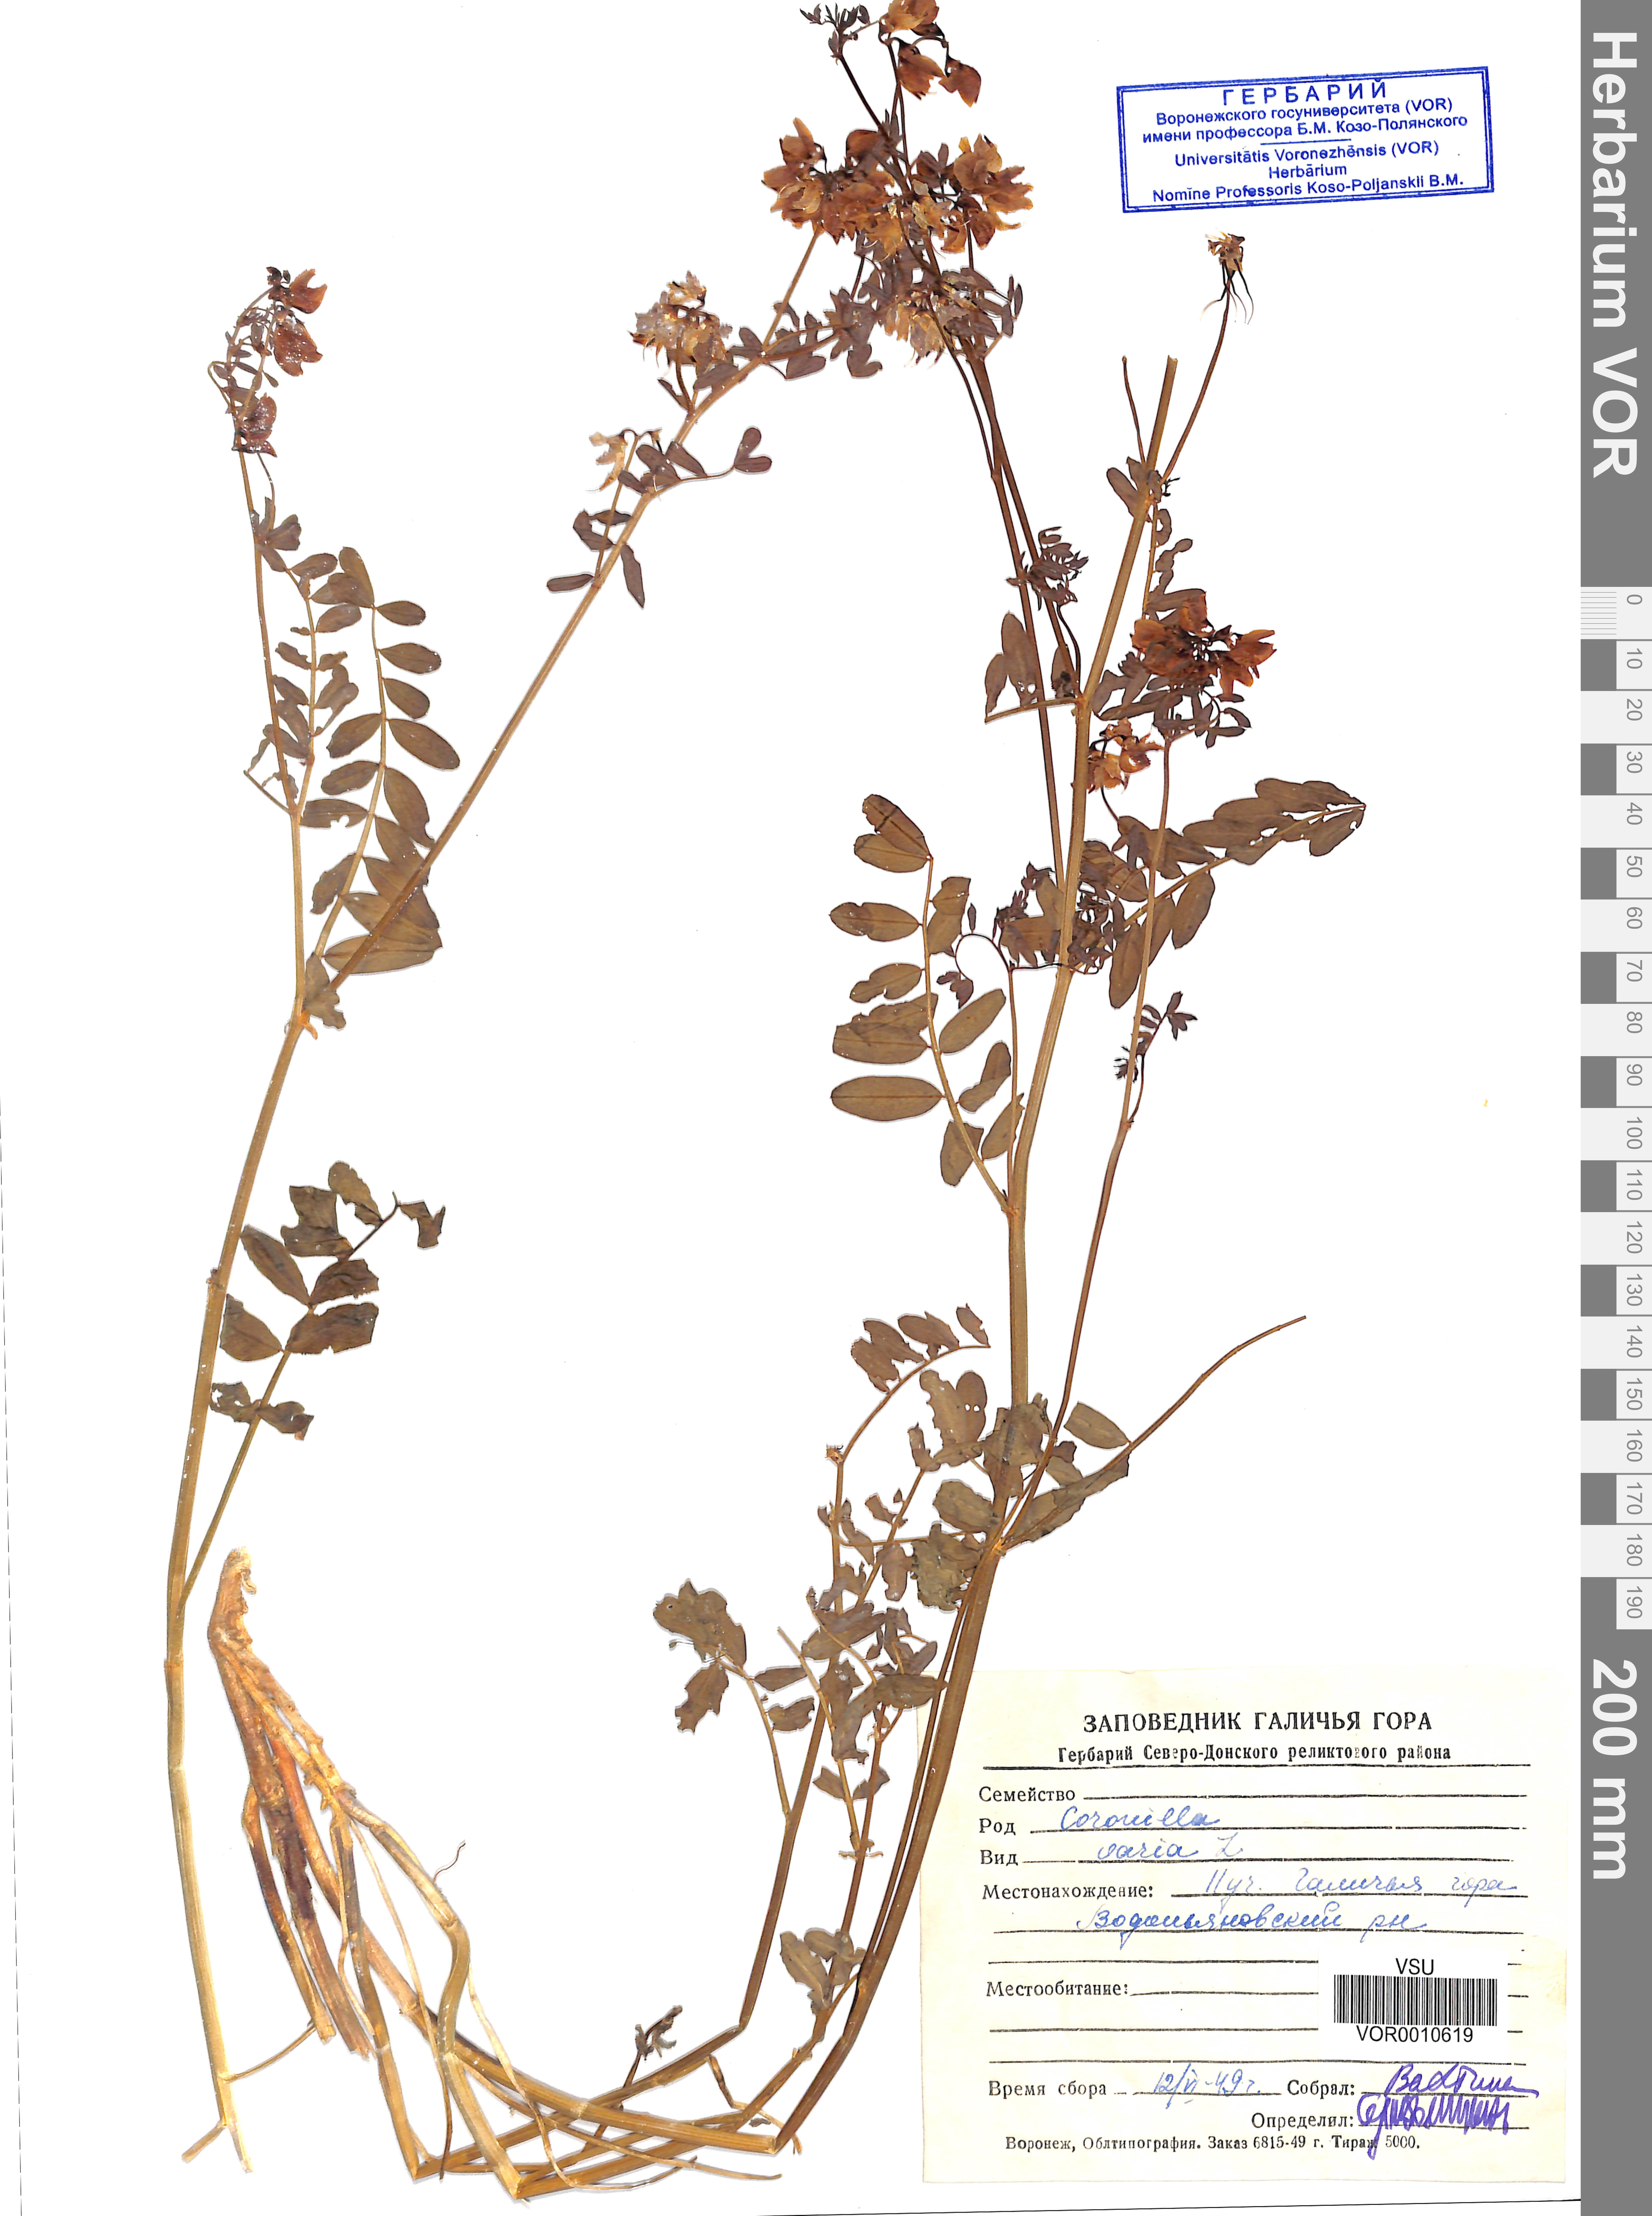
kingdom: Plantae
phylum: Tracheophyta
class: Magnoliopsida
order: Fabales
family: Fabaceae
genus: Coronilla
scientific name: Coronilla varia
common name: Crownvetch
